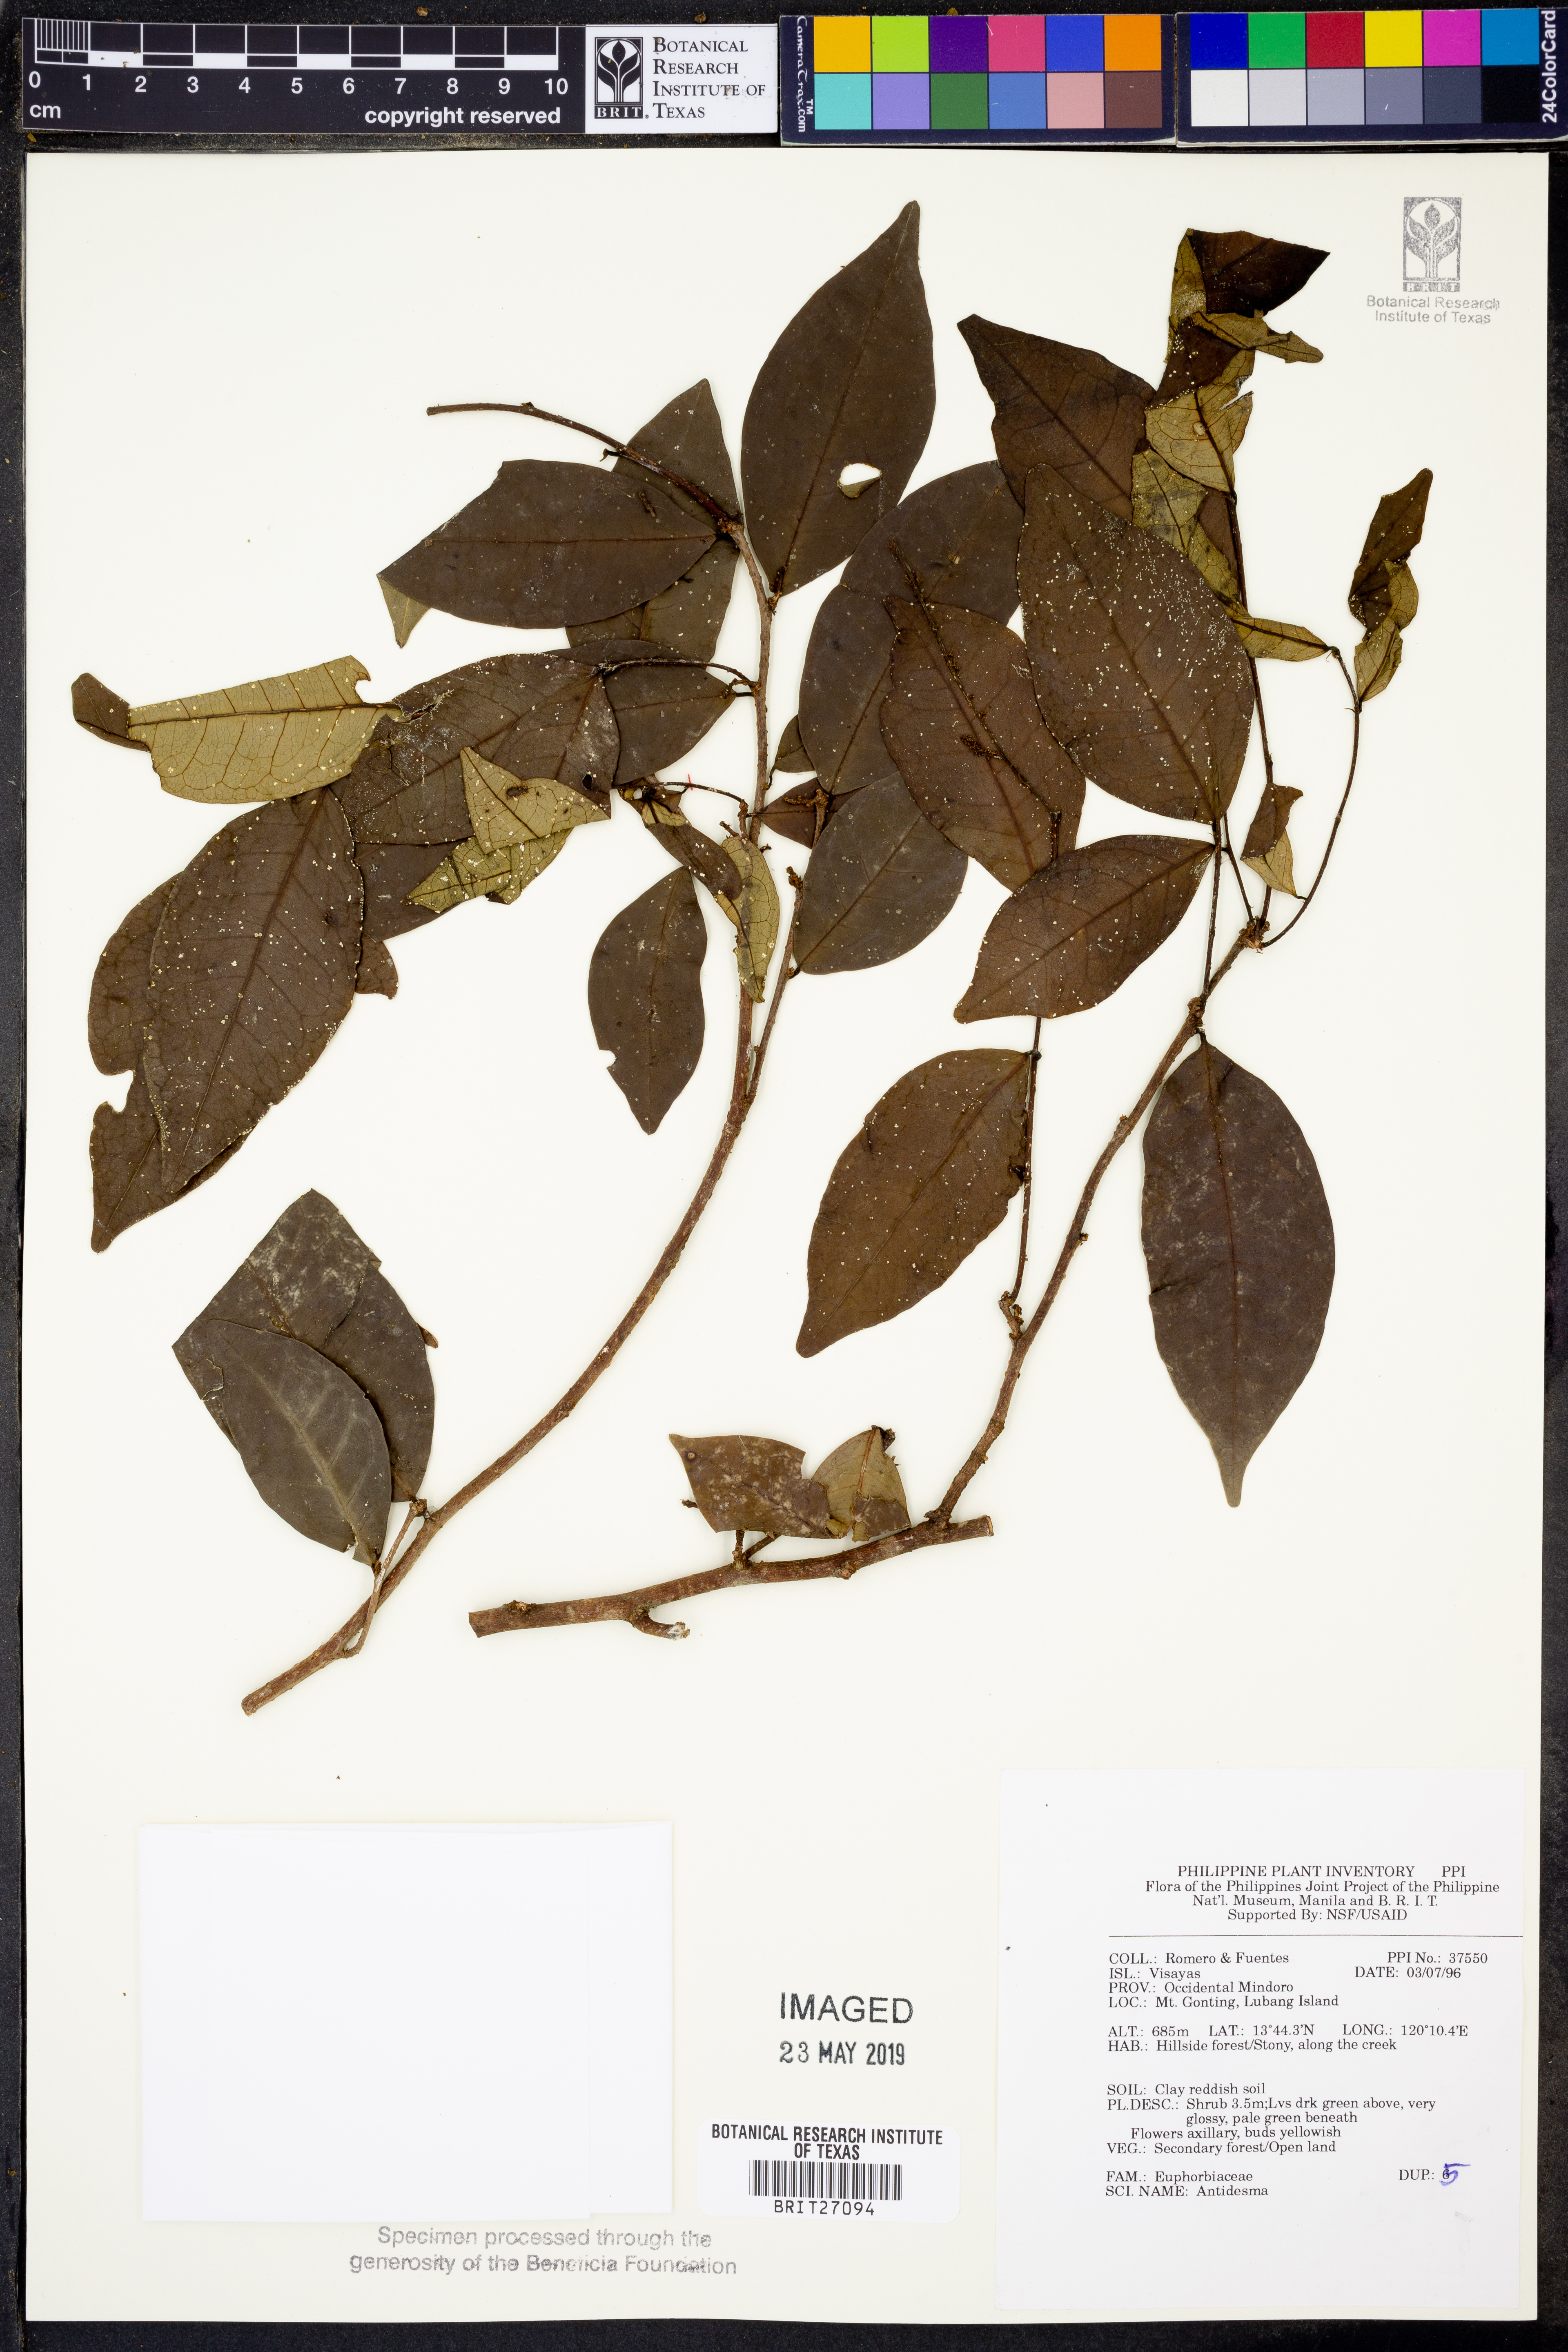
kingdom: Plantae
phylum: Tracheophyta
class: Magnoliopsida
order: Malpighiales
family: Phyllanthaceae
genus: Antidesma
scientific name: Antidesma
